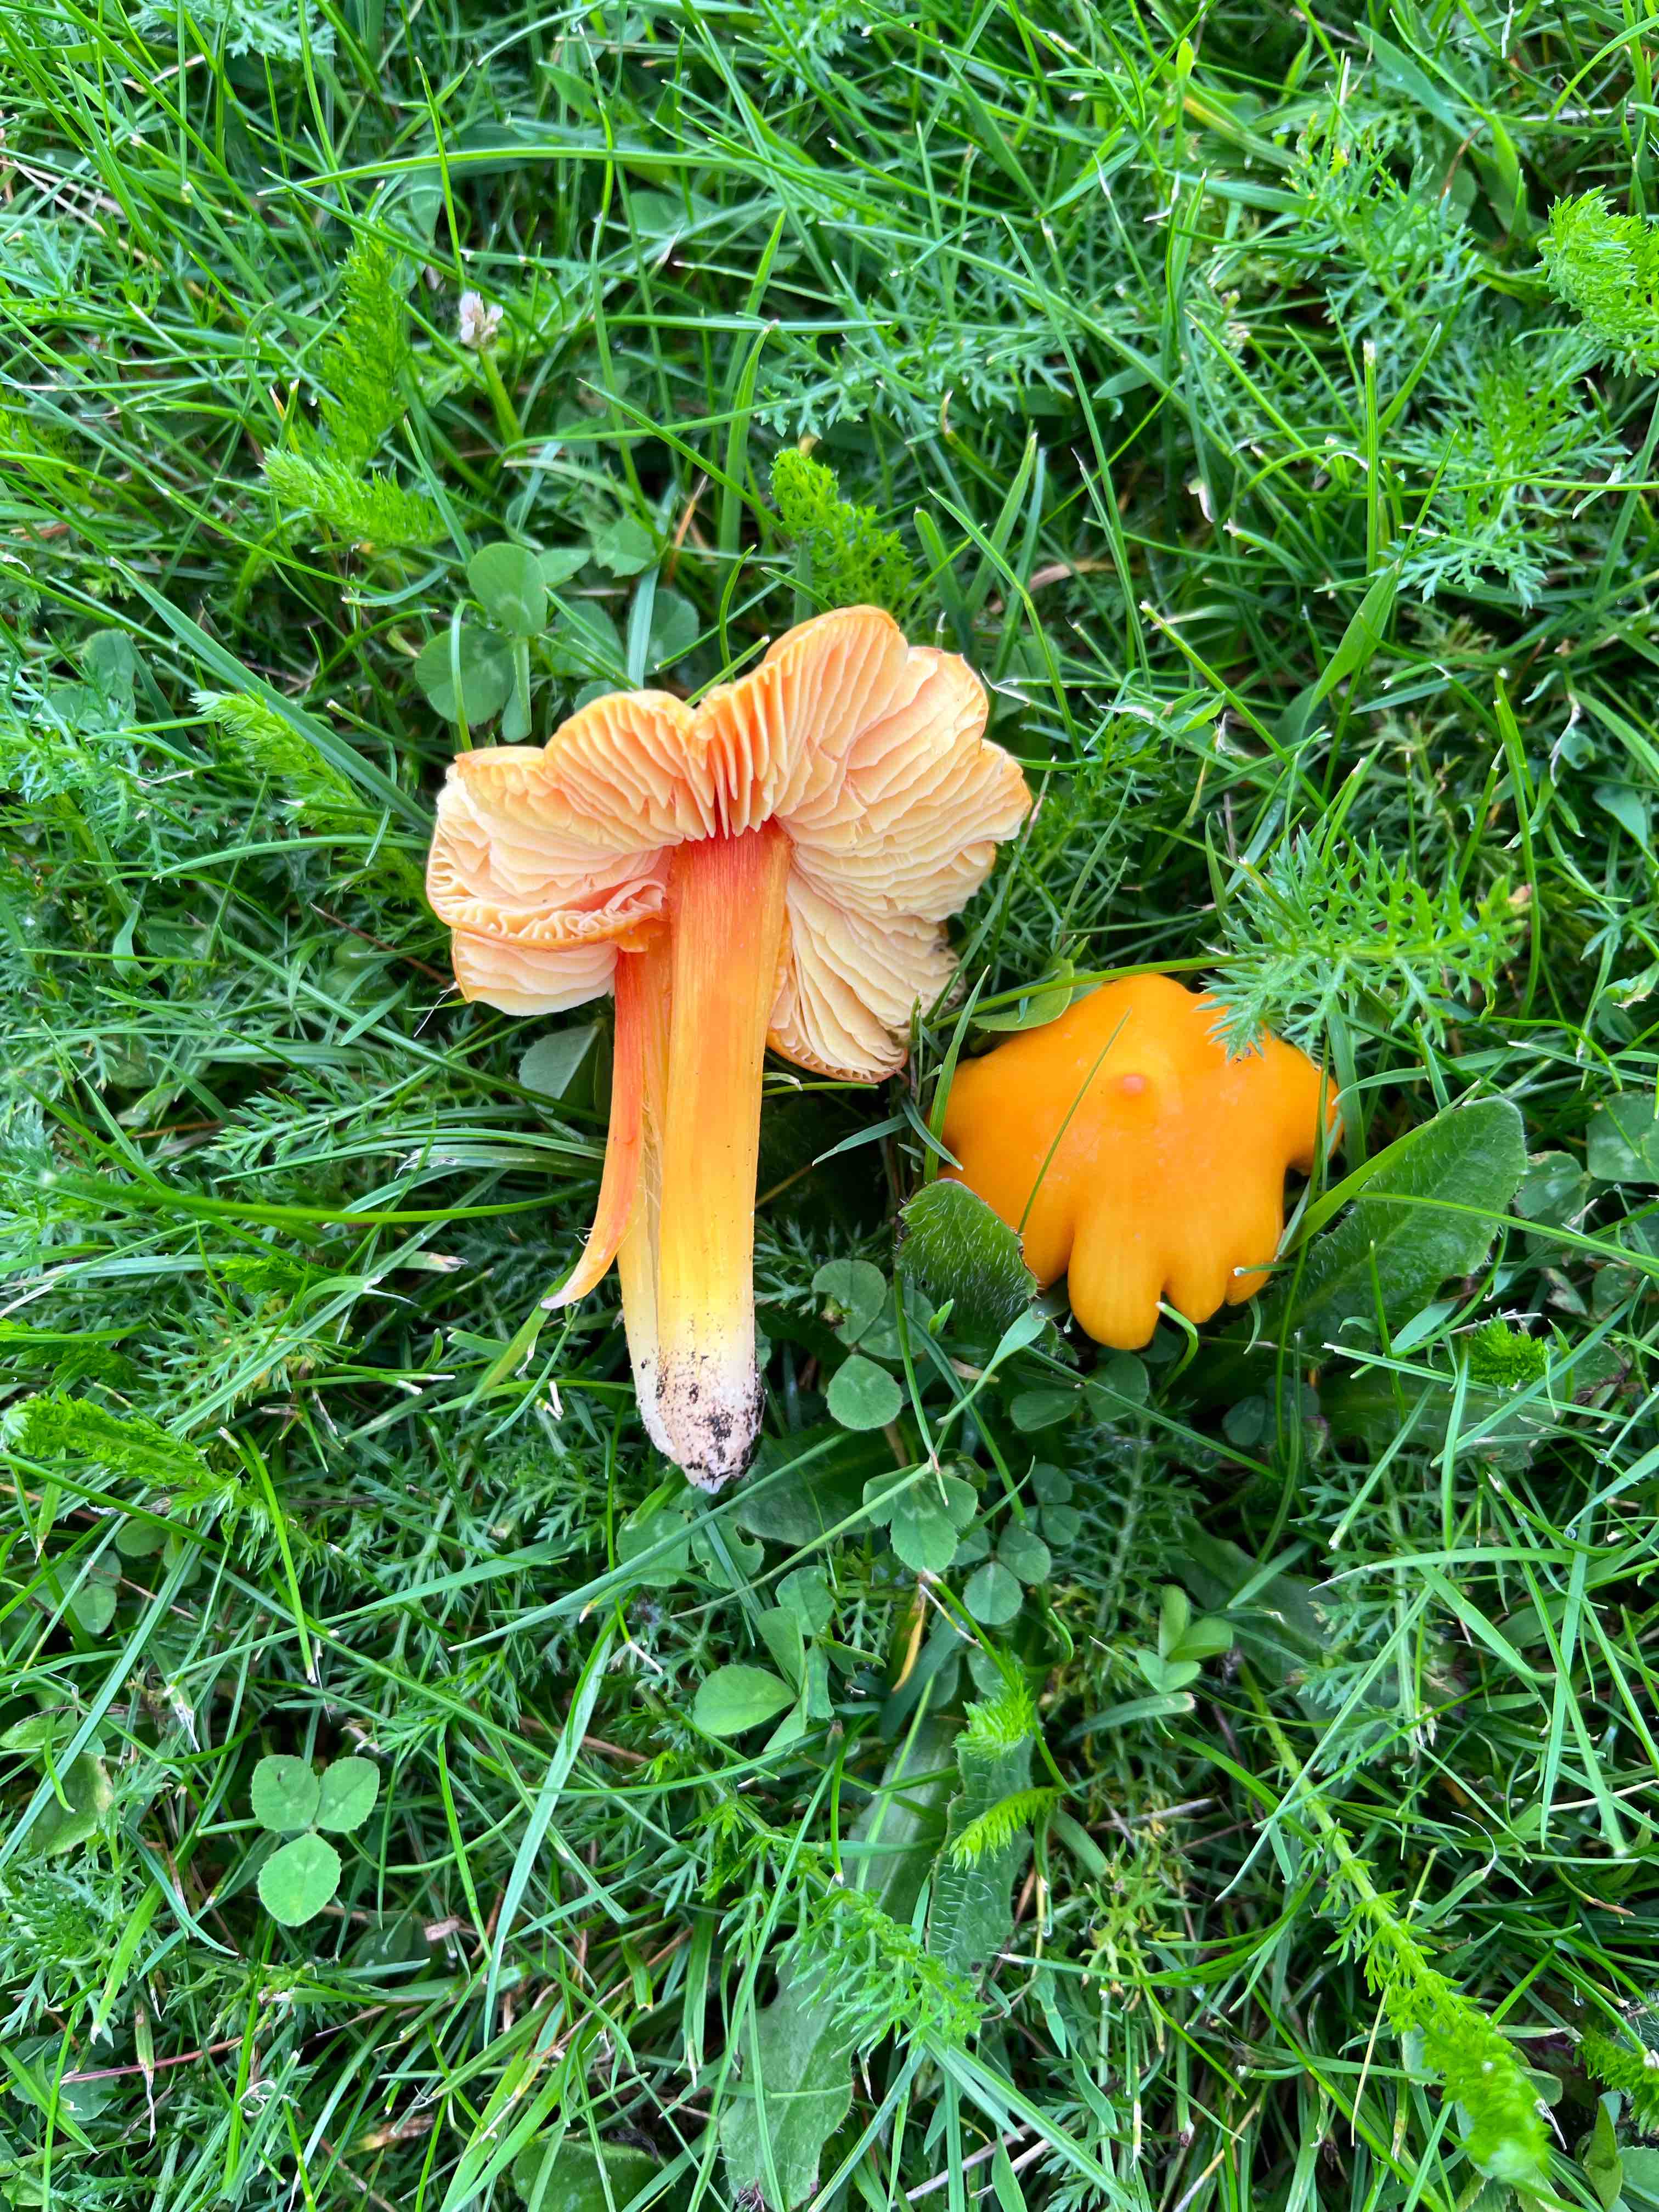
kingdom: Fungi
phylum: Basidiomycota
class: Agaricomycetes
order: Agaricales
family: Hygrophoraceae
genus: Hygrocybe
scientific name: Hygrocybe
